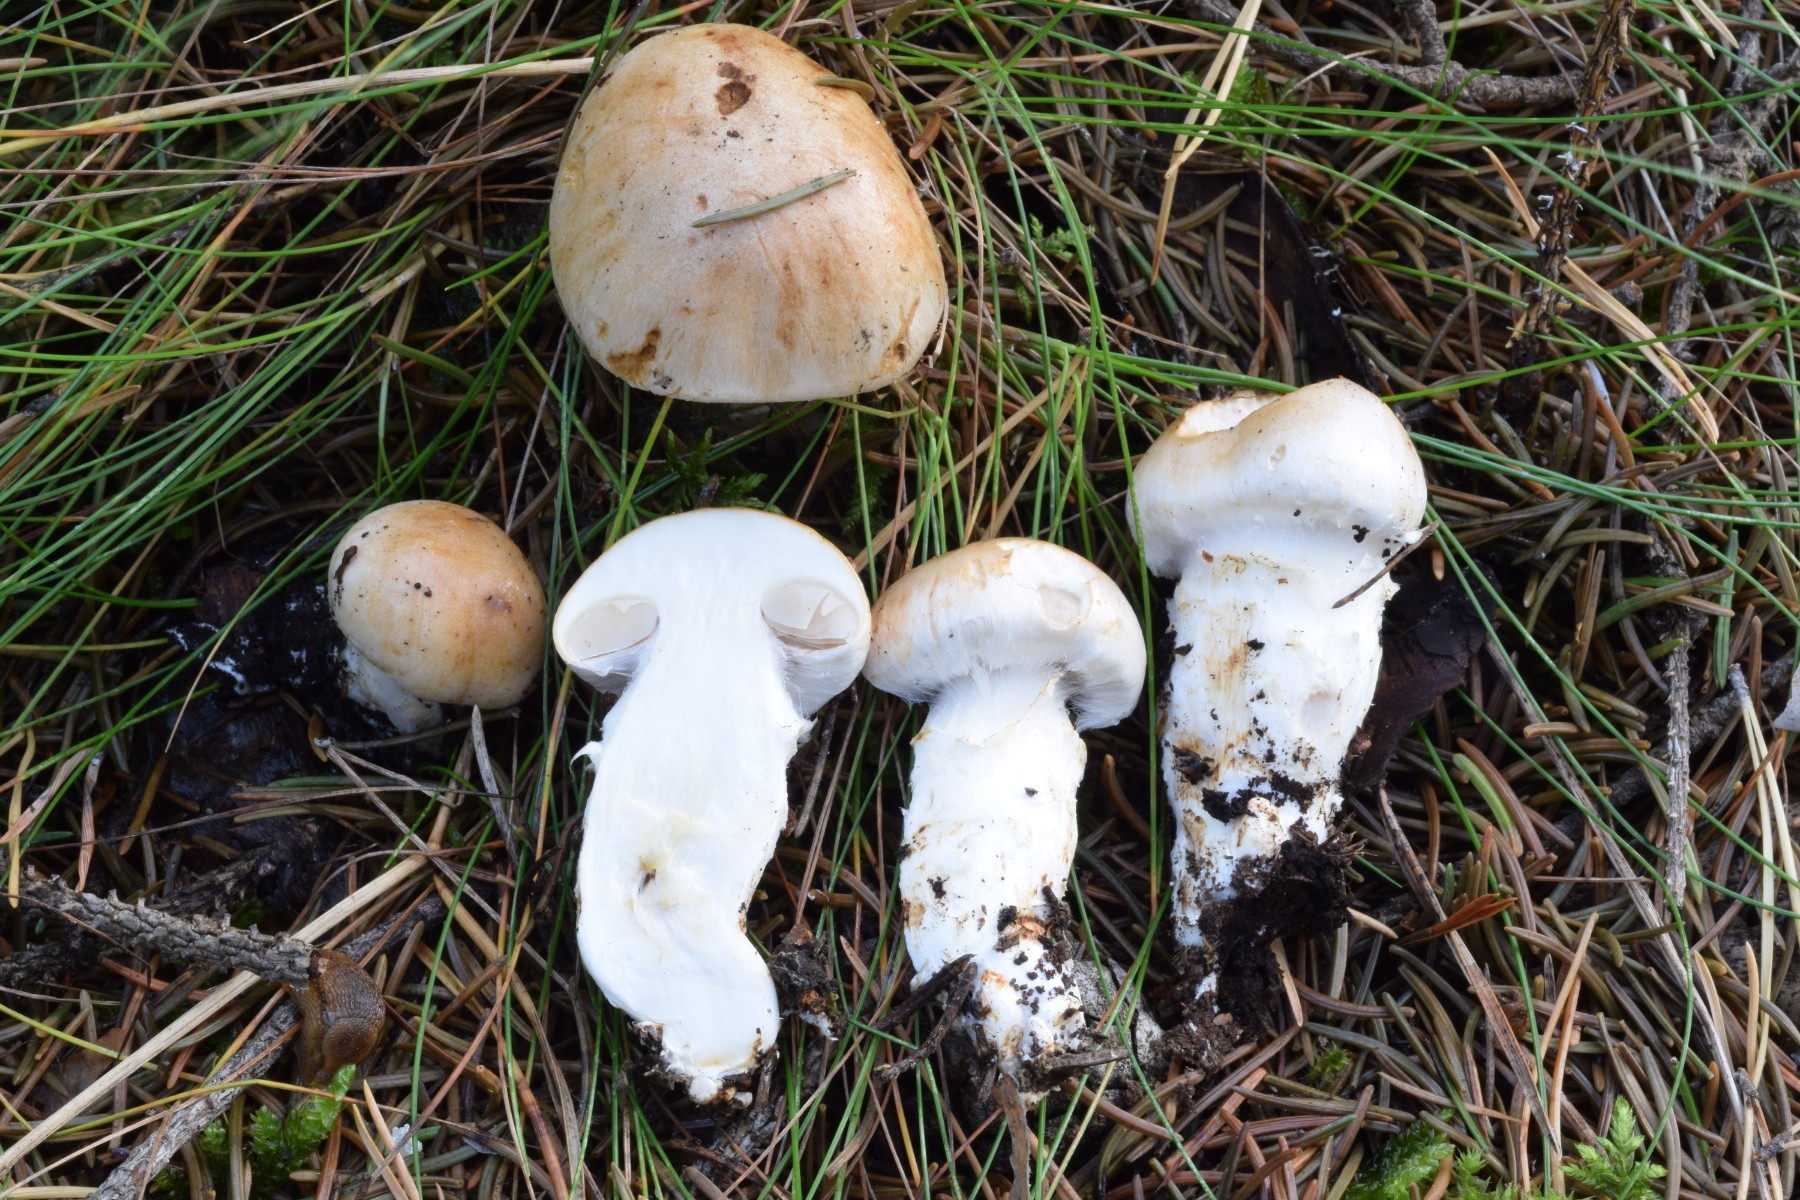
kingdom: Fungi
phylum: Basidiomycota
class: Agaricomycetes
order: Agaricales
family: Cortinariaceae
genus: Cortinarius
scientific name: Cortinarius fraudulosus
